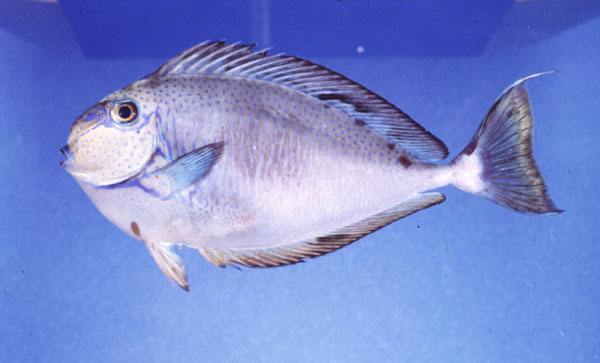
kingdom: Animalia
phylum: Chordata
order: Perciformes
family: Acanthuridae
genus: Naso
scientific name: Naso vlamingii
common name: Big-nose unicorn
